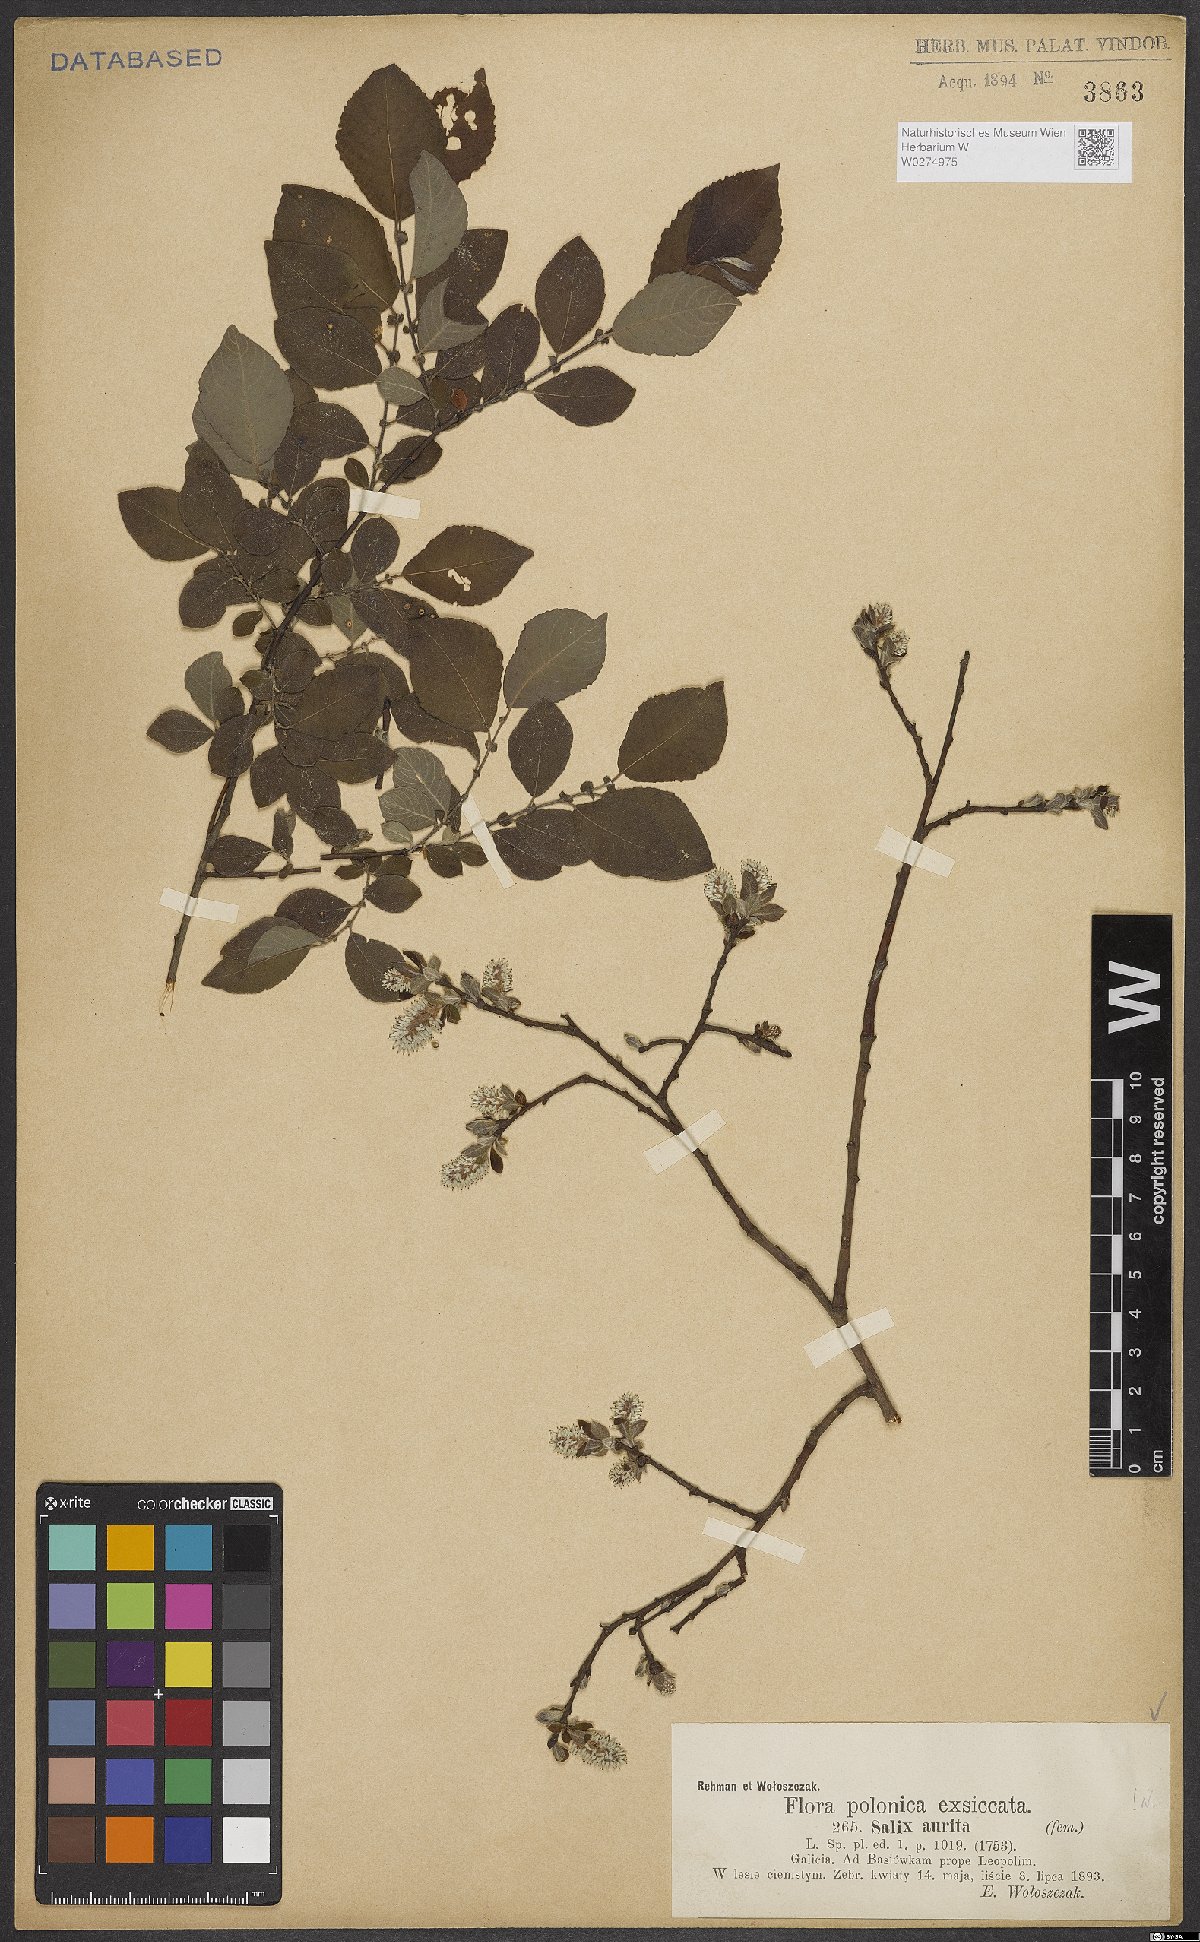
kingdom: Plantae
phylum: Tracheophyta
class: Magnoliopsida
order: Malpighiales
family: Salicaceae
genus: Salix
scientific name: Salix aurita
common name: Eared willow
